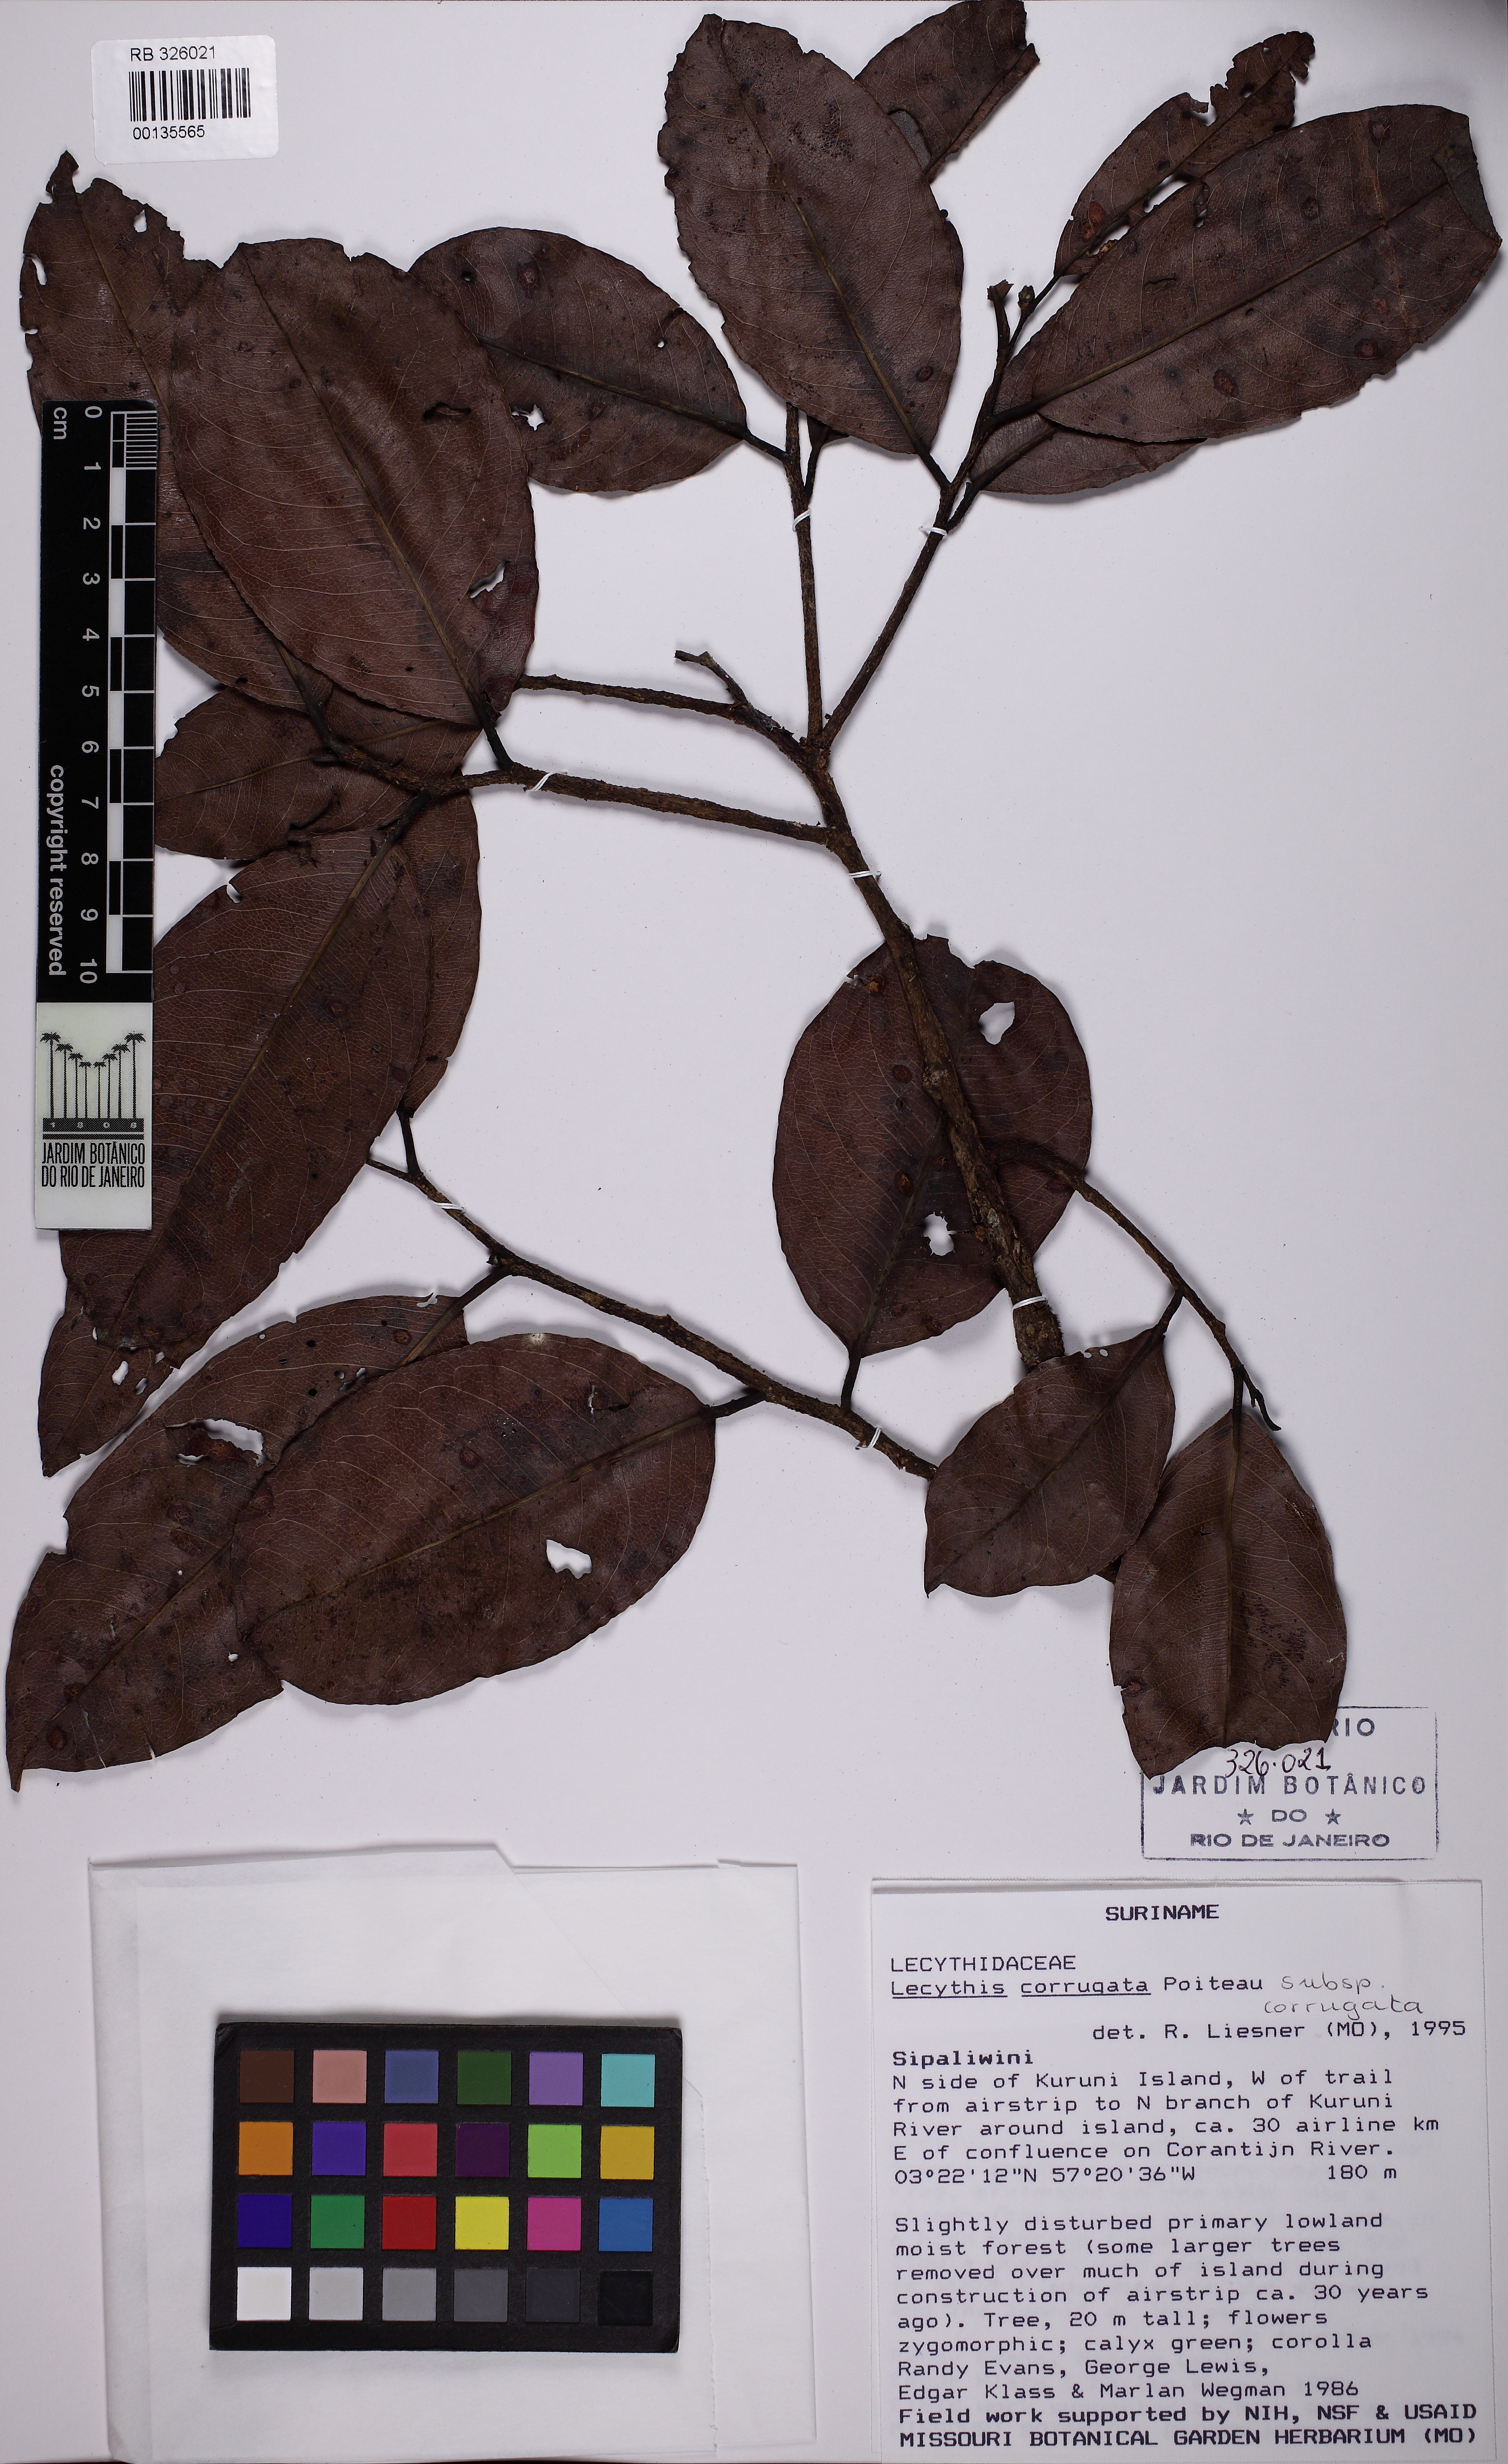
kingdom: Plantae
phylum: Tracheophyta
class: Magnoliopsida
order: Ericales
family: Lecythidaceae
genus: Lecythis
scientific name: Lecythis corrugata
